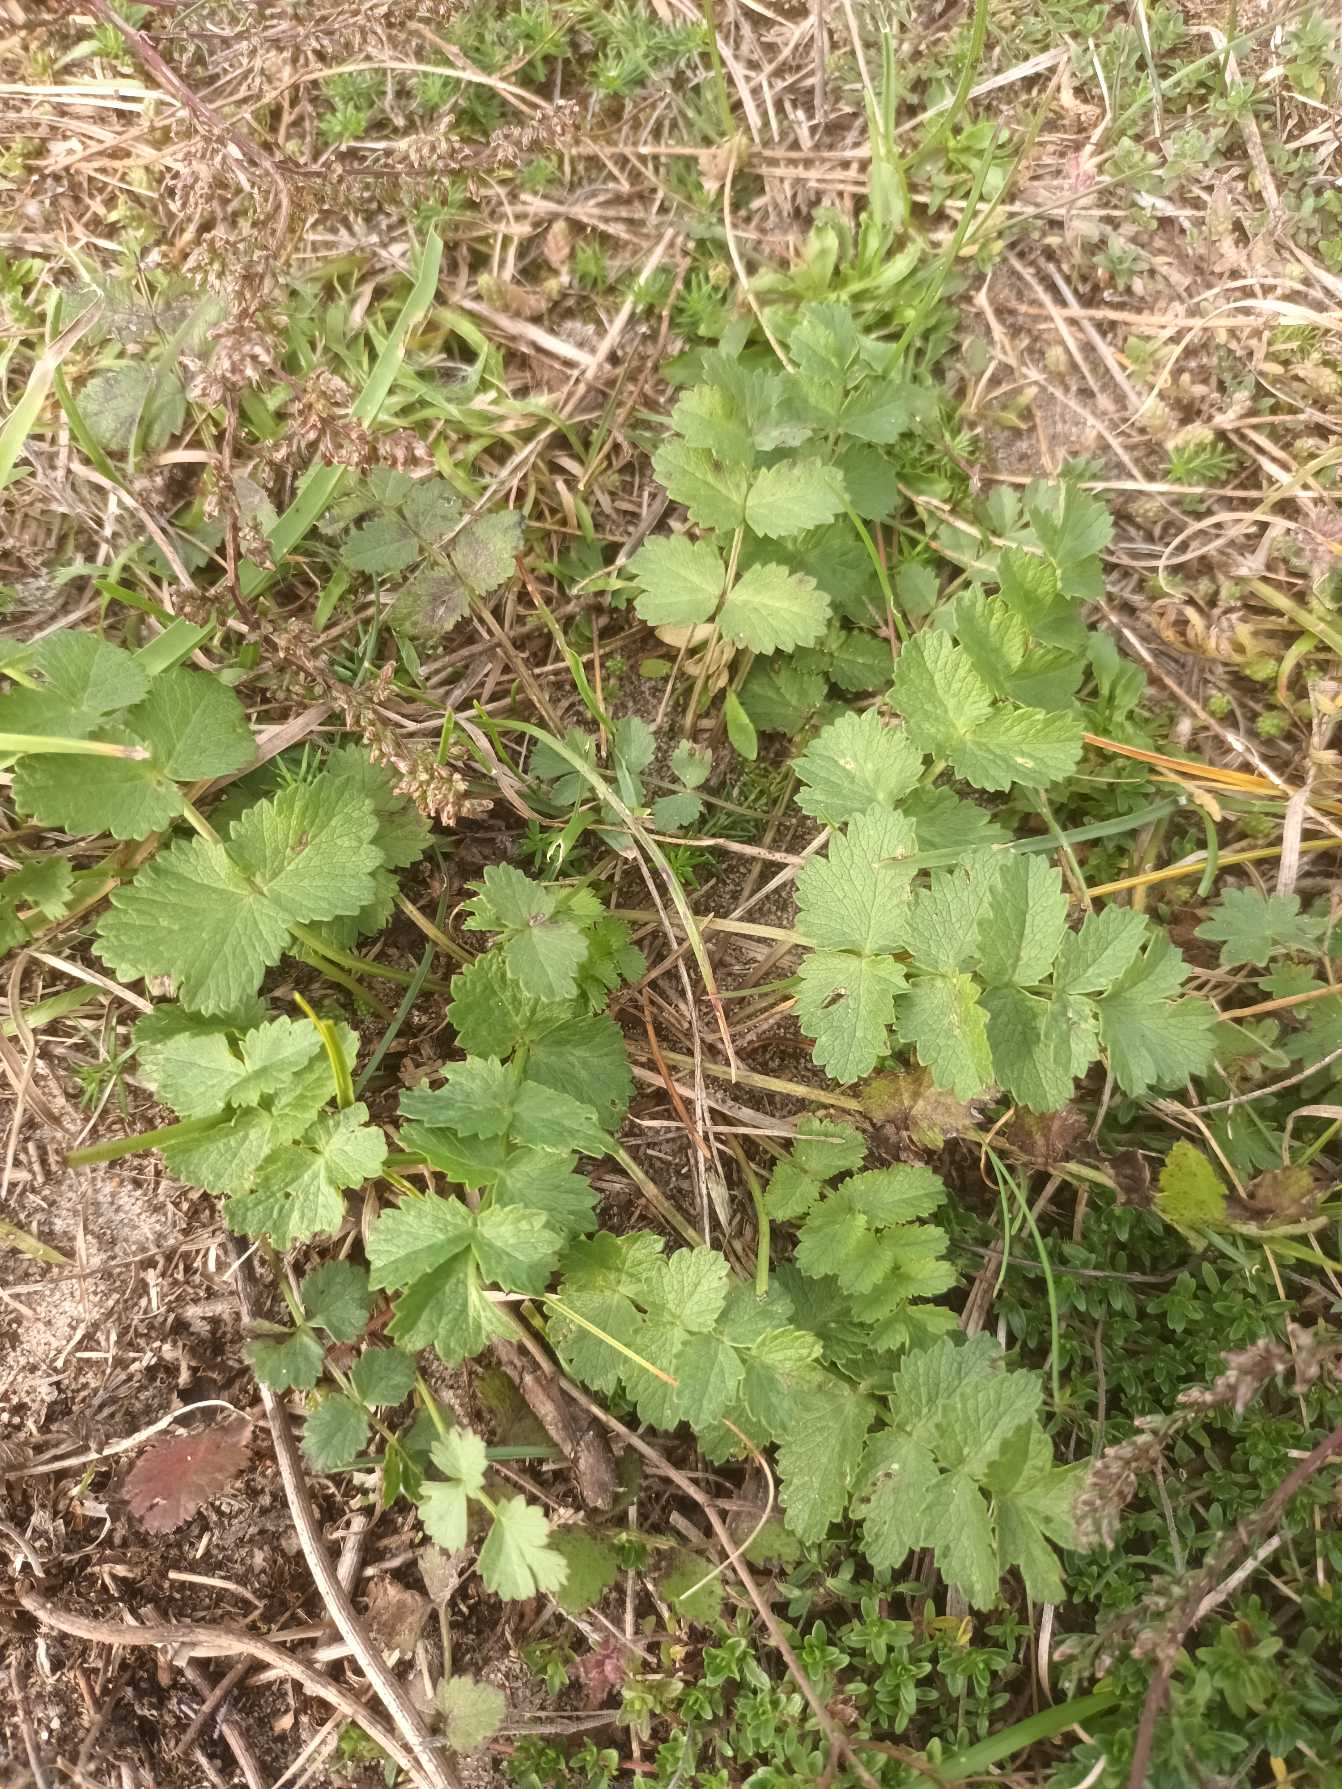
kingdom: Plantae
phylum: Tracheophyta
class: Magnoliopsida
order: Apiales
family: Apiaceae
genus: Pimpinella
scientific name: Pimpinella saxifraga
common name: Almindelig pimpinelle
